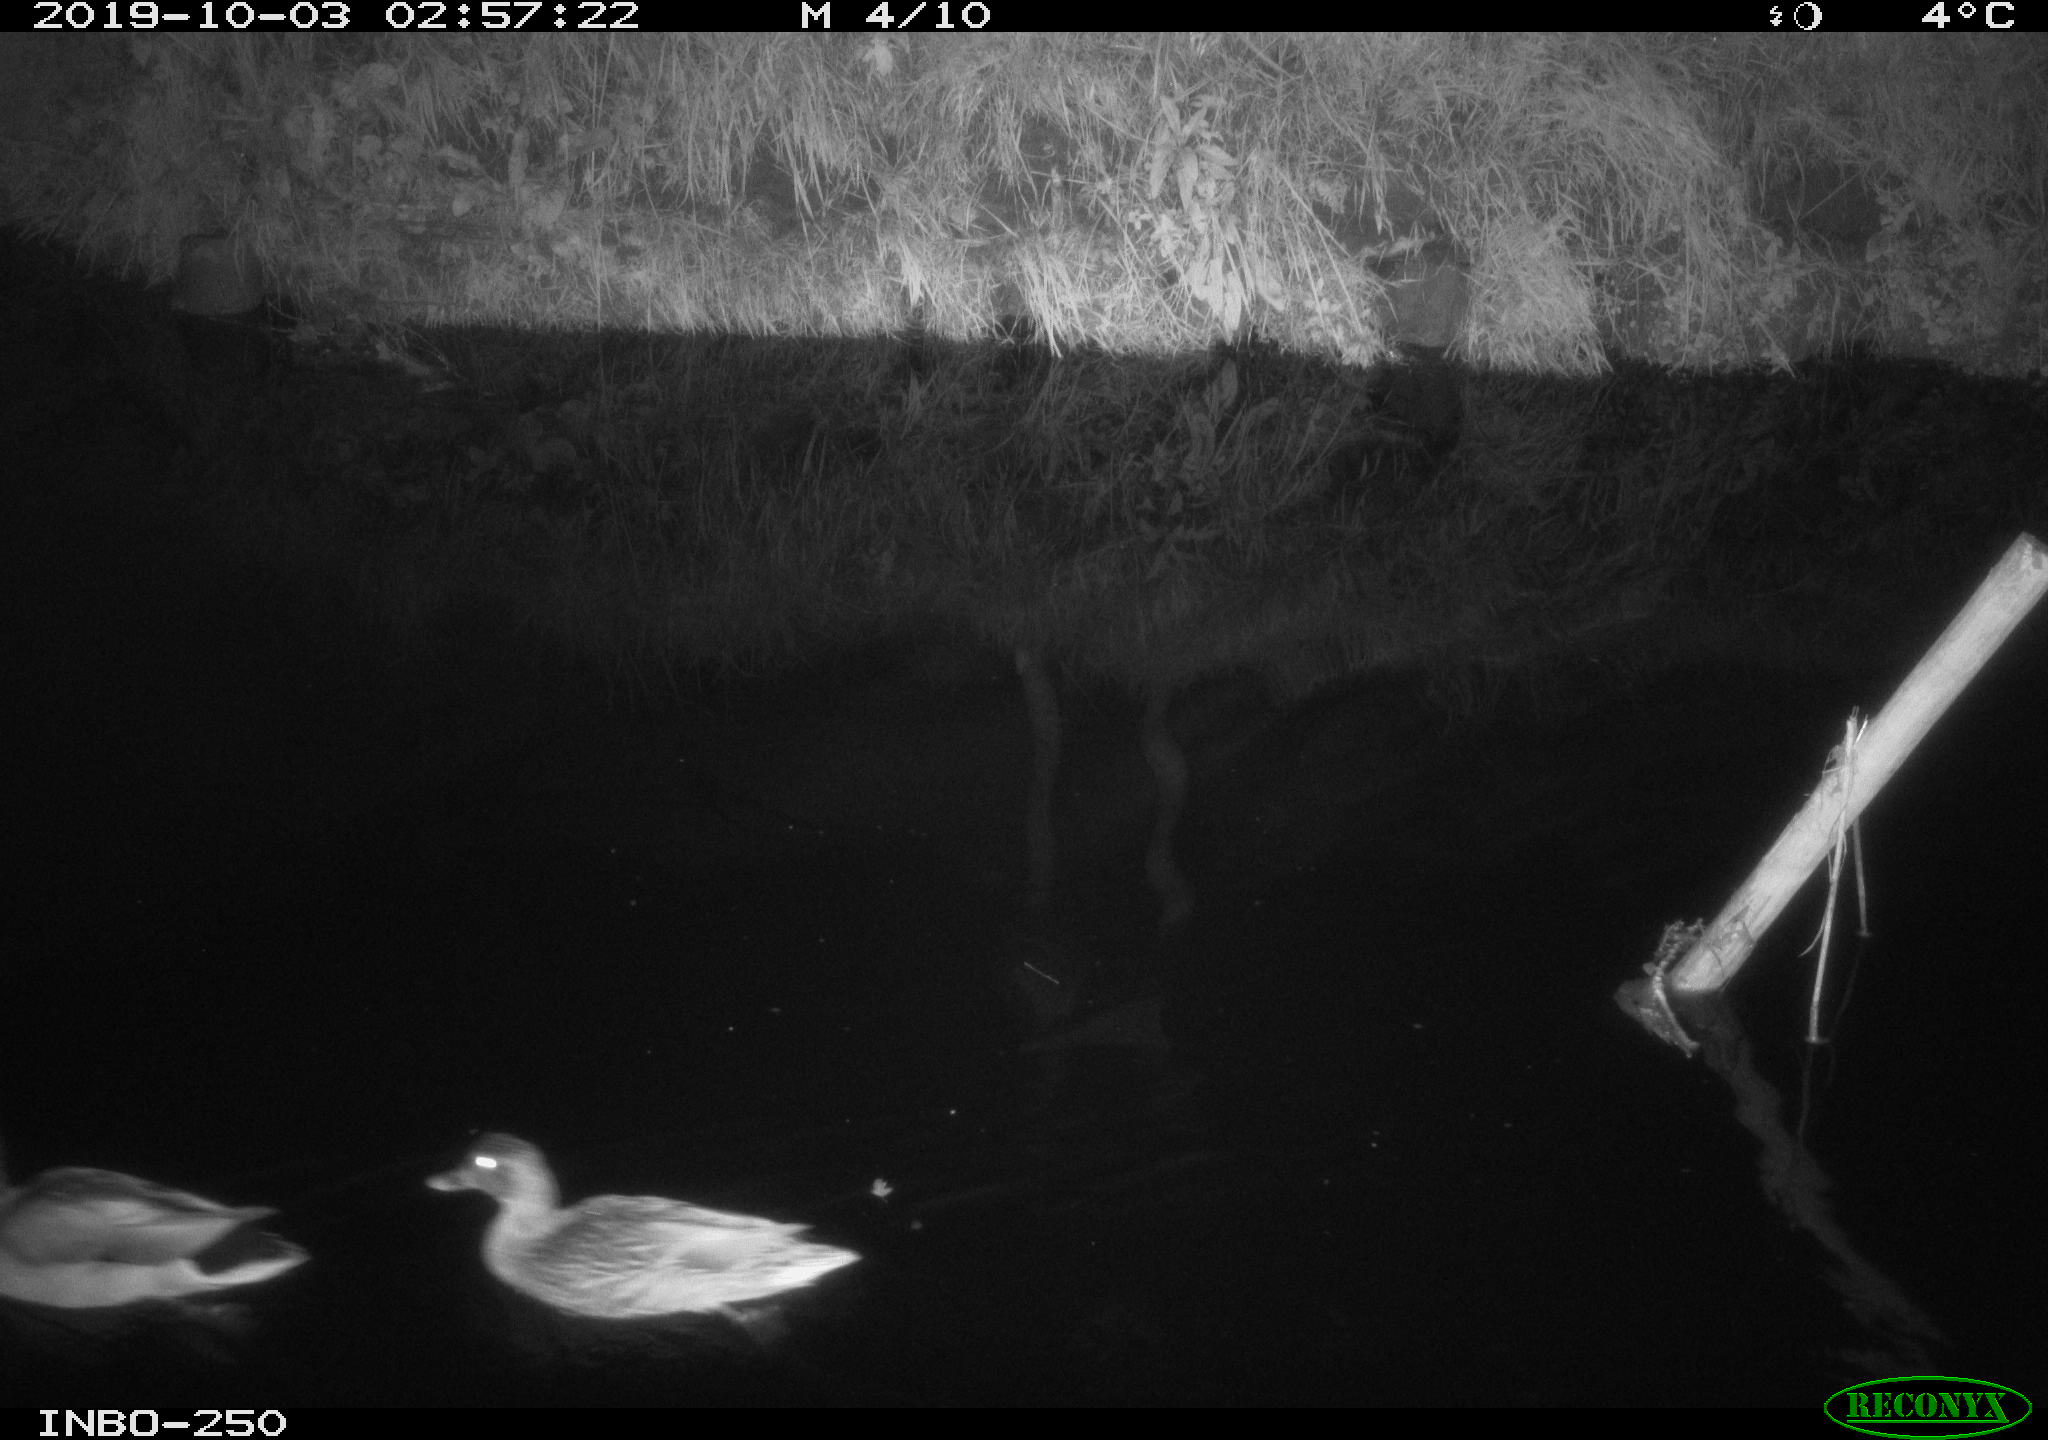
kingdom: Animalia
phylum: Chordata
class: Aves
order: Anseriformes
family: Anatidae
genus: Anas
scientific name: Anas platyrhynchos
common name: Mallard
